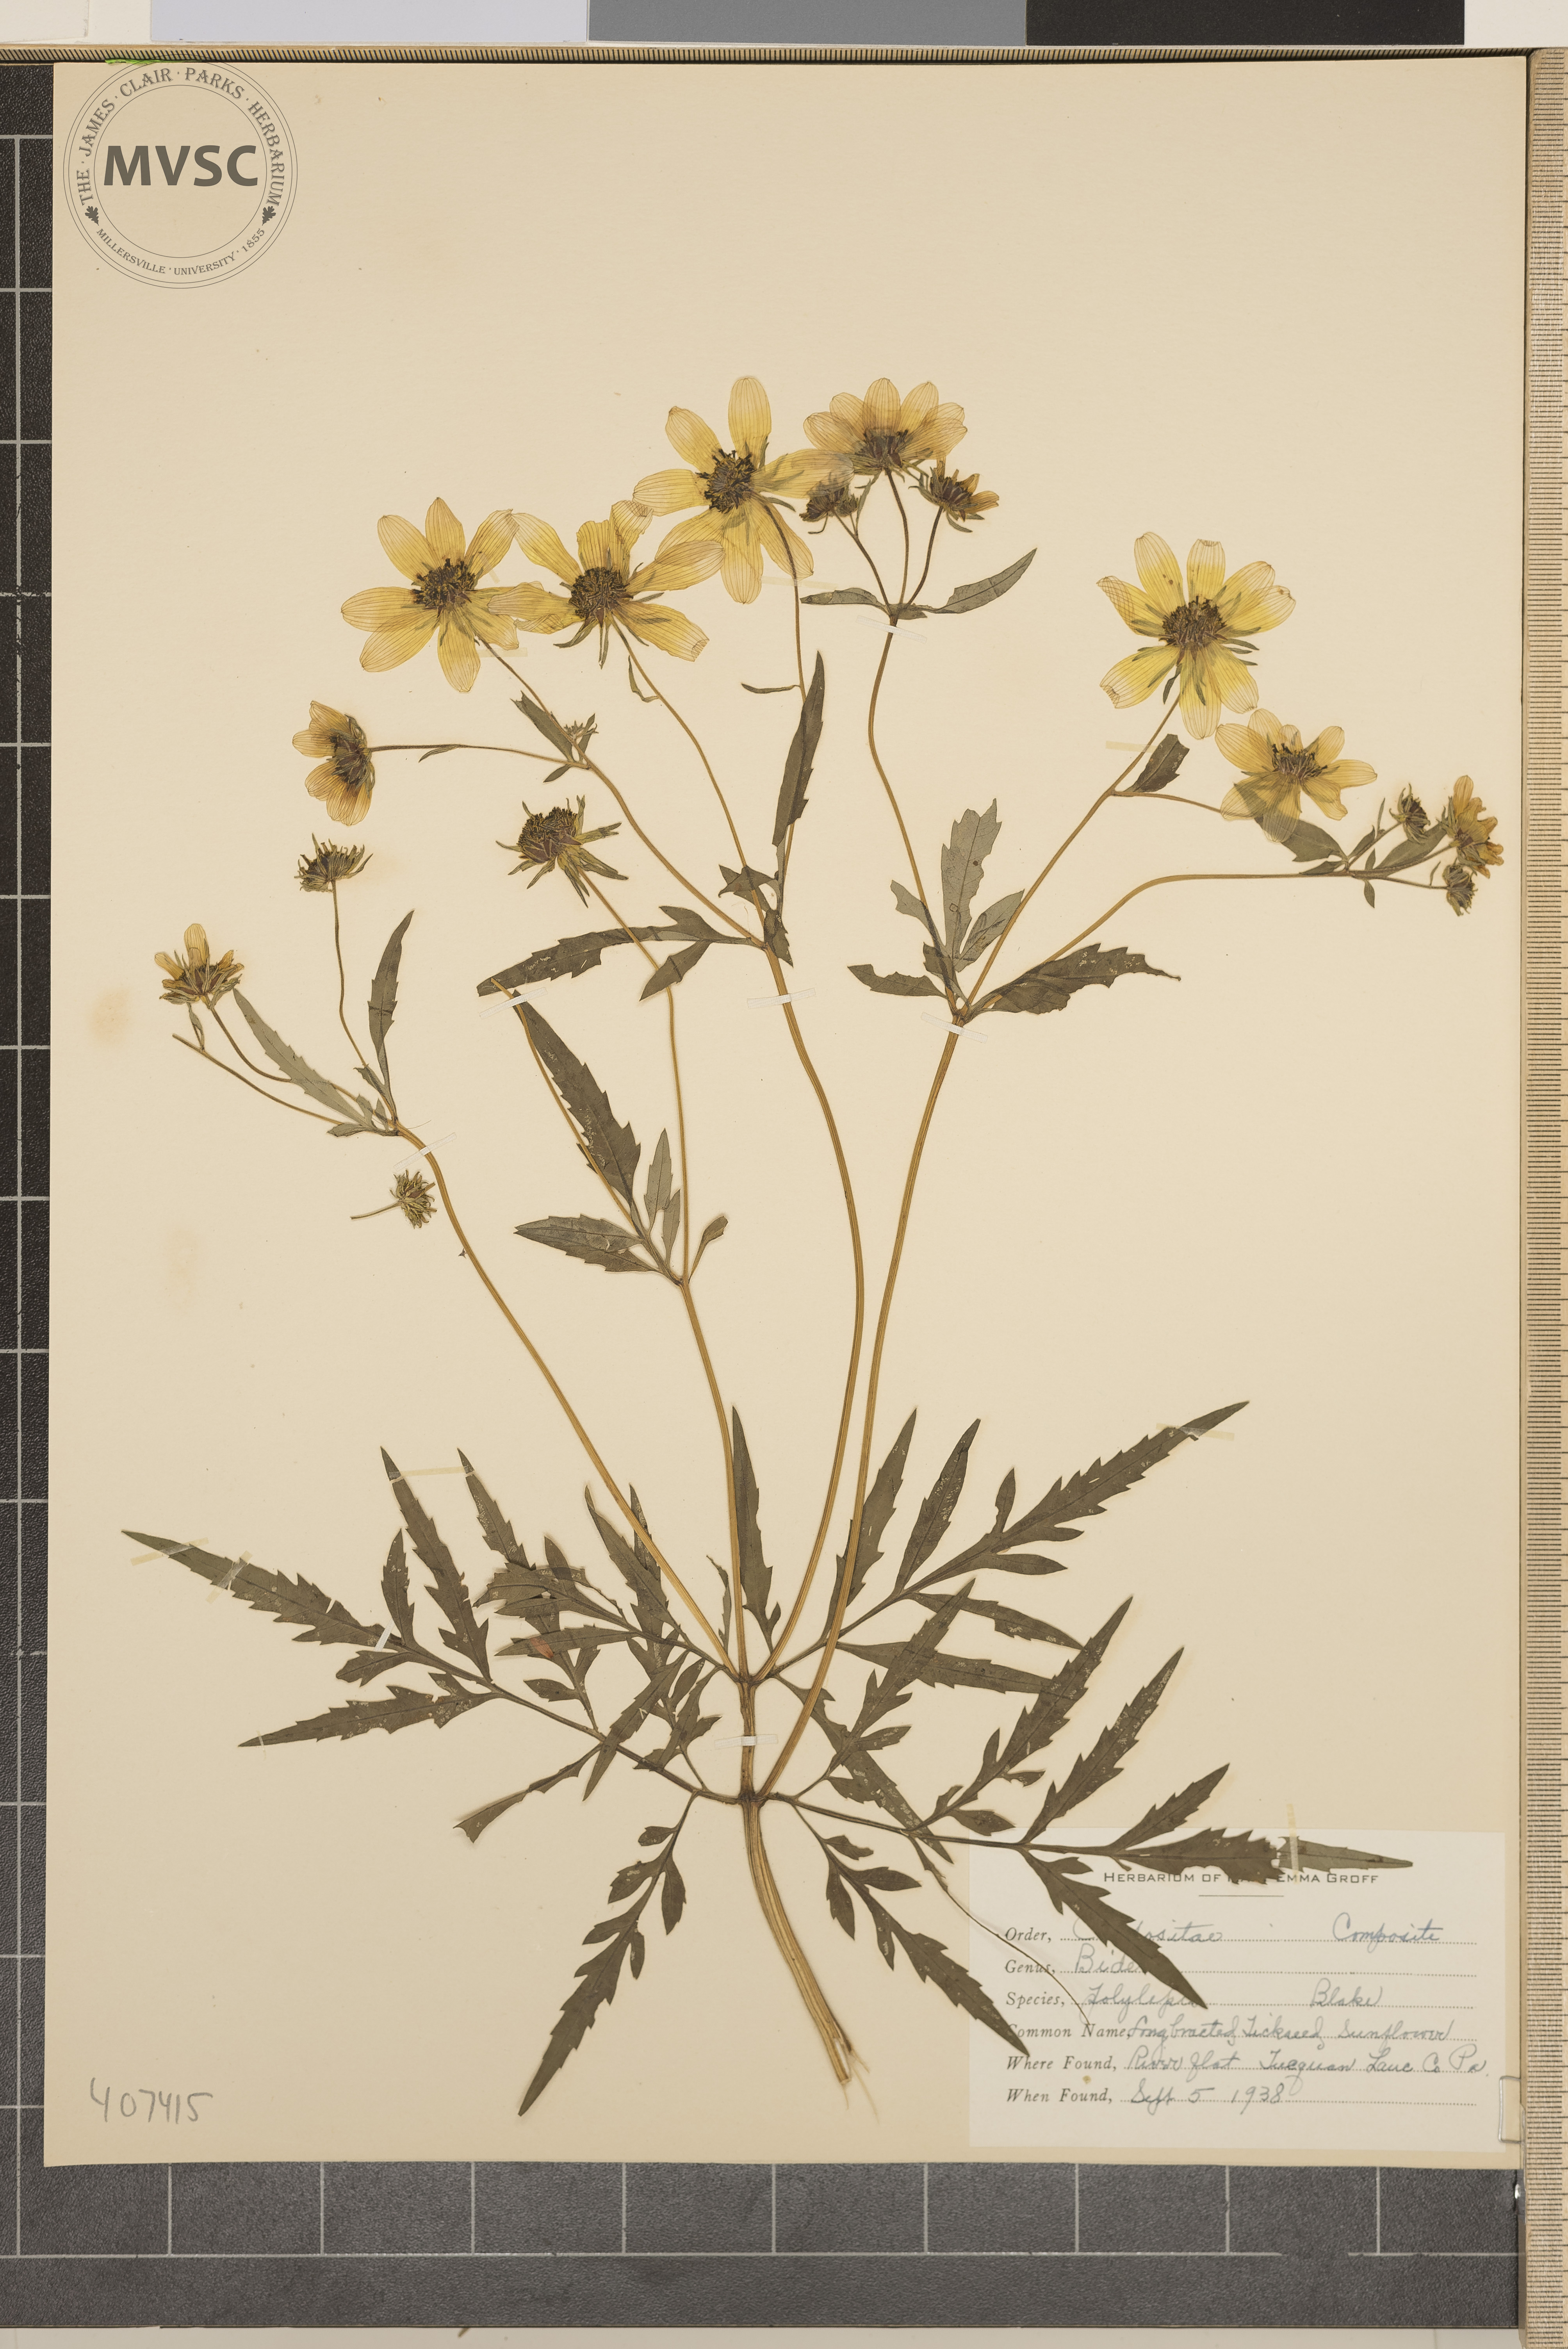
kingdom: Plantae
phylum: Tracheophyta
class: Magnoliopsida
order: Asterales
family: Asteraceae
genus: Bidens
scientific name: Bidens polylepis
